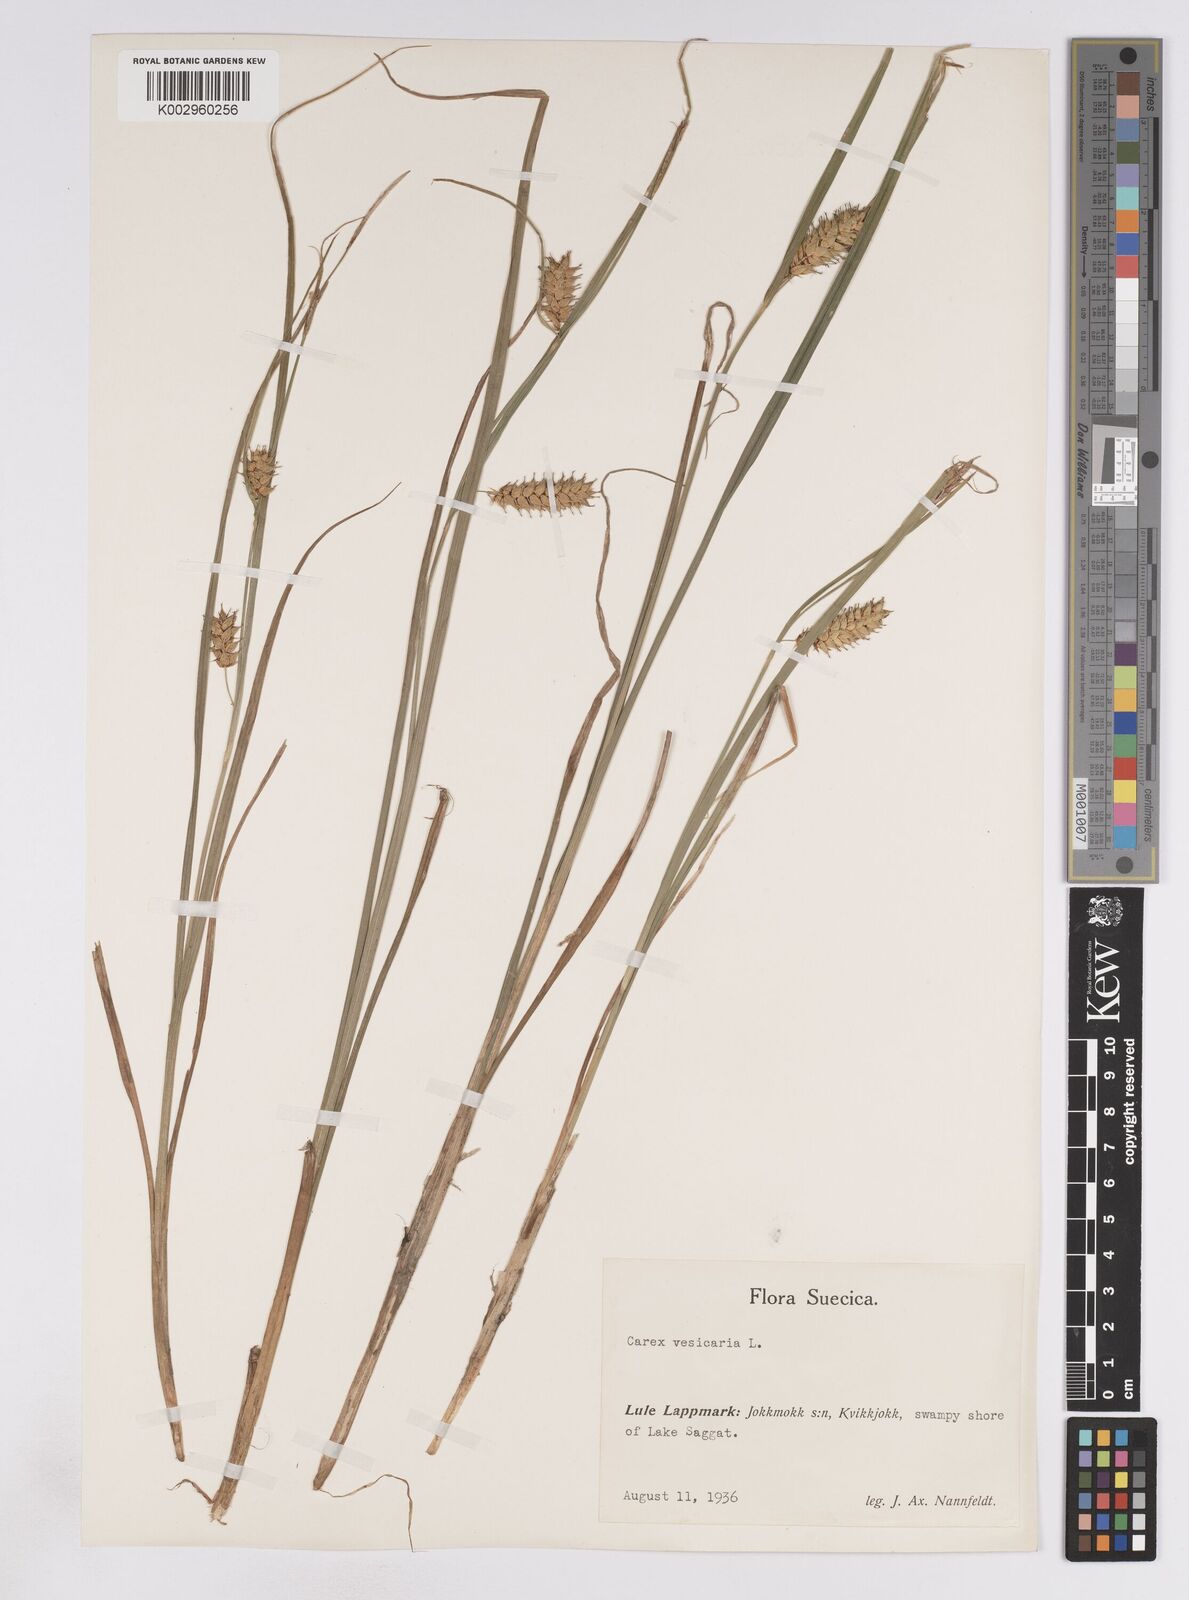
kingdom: Plantae
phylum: Tracheophyta
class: Liliopsida
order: Poales
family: Cyperaceae
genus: Carex
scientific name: Carex vesicaria
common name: Bladder-sedge
